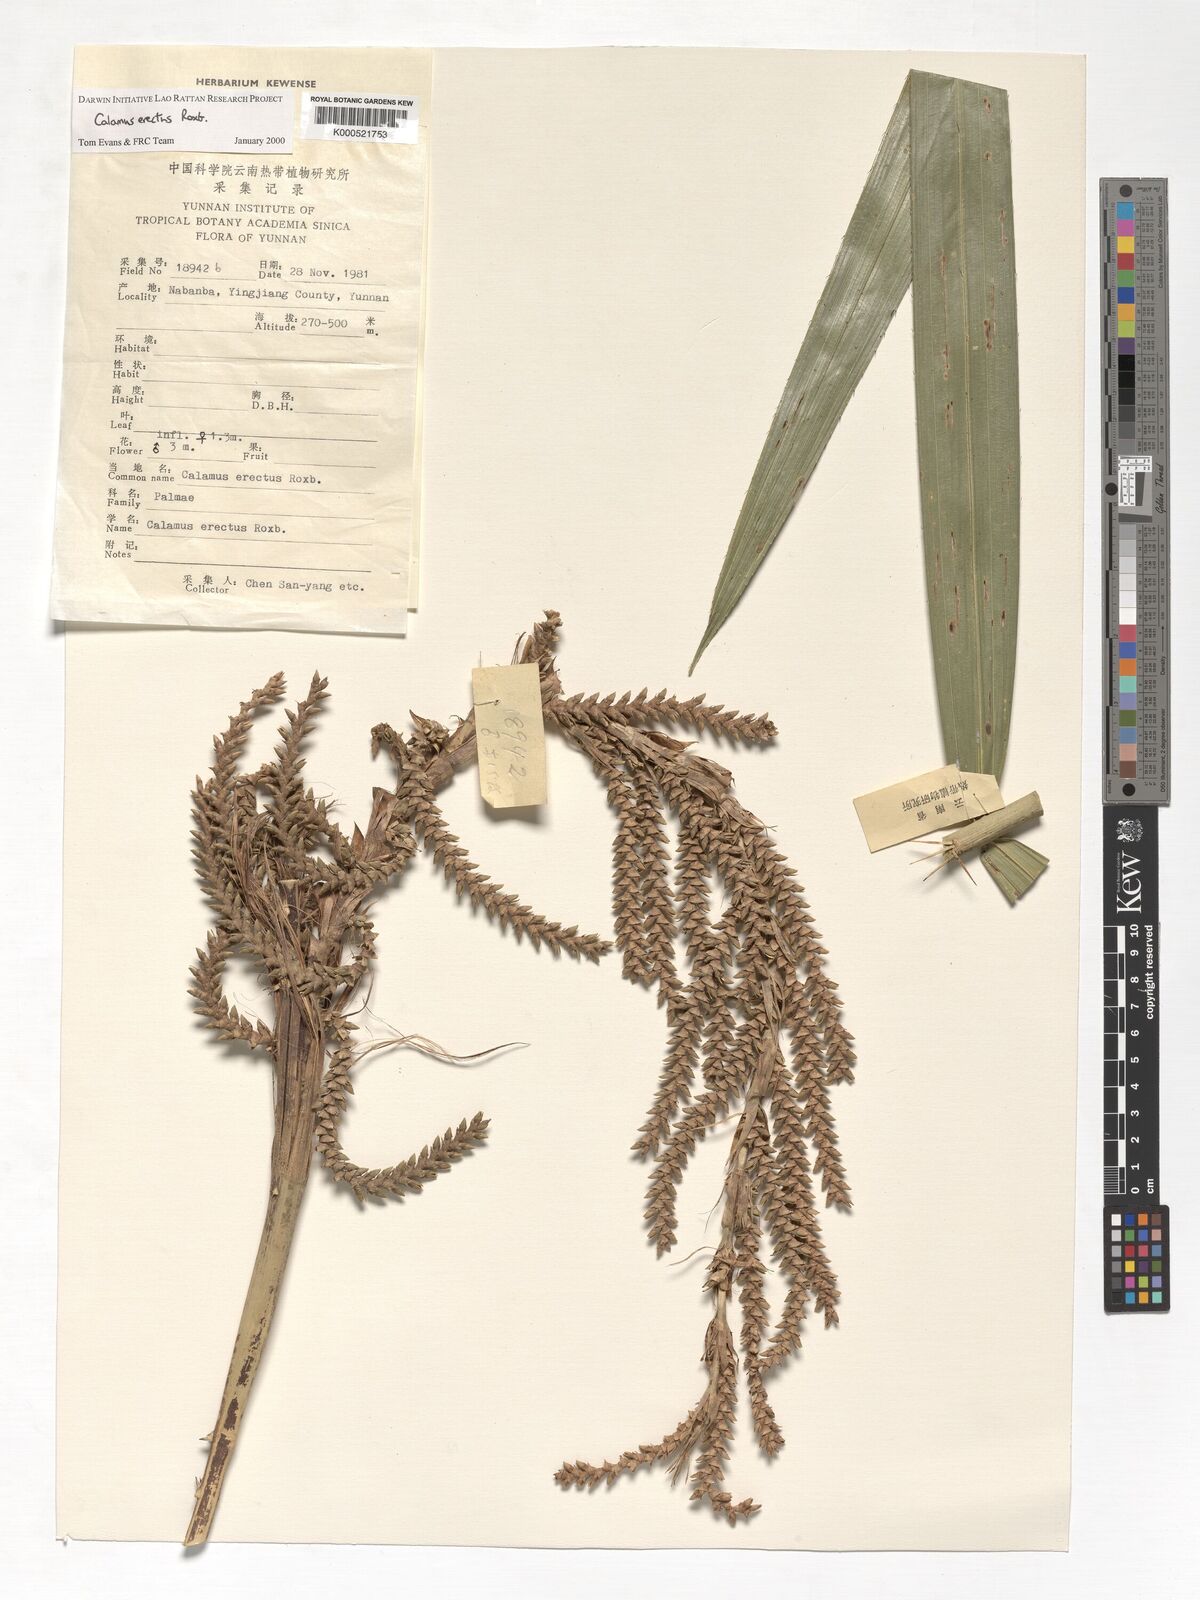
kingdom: Plantae
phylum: Tracheophyta
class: Liliopsida
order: Arecales
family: Arecaceae
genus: Calamus
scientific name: Calamus erectus
